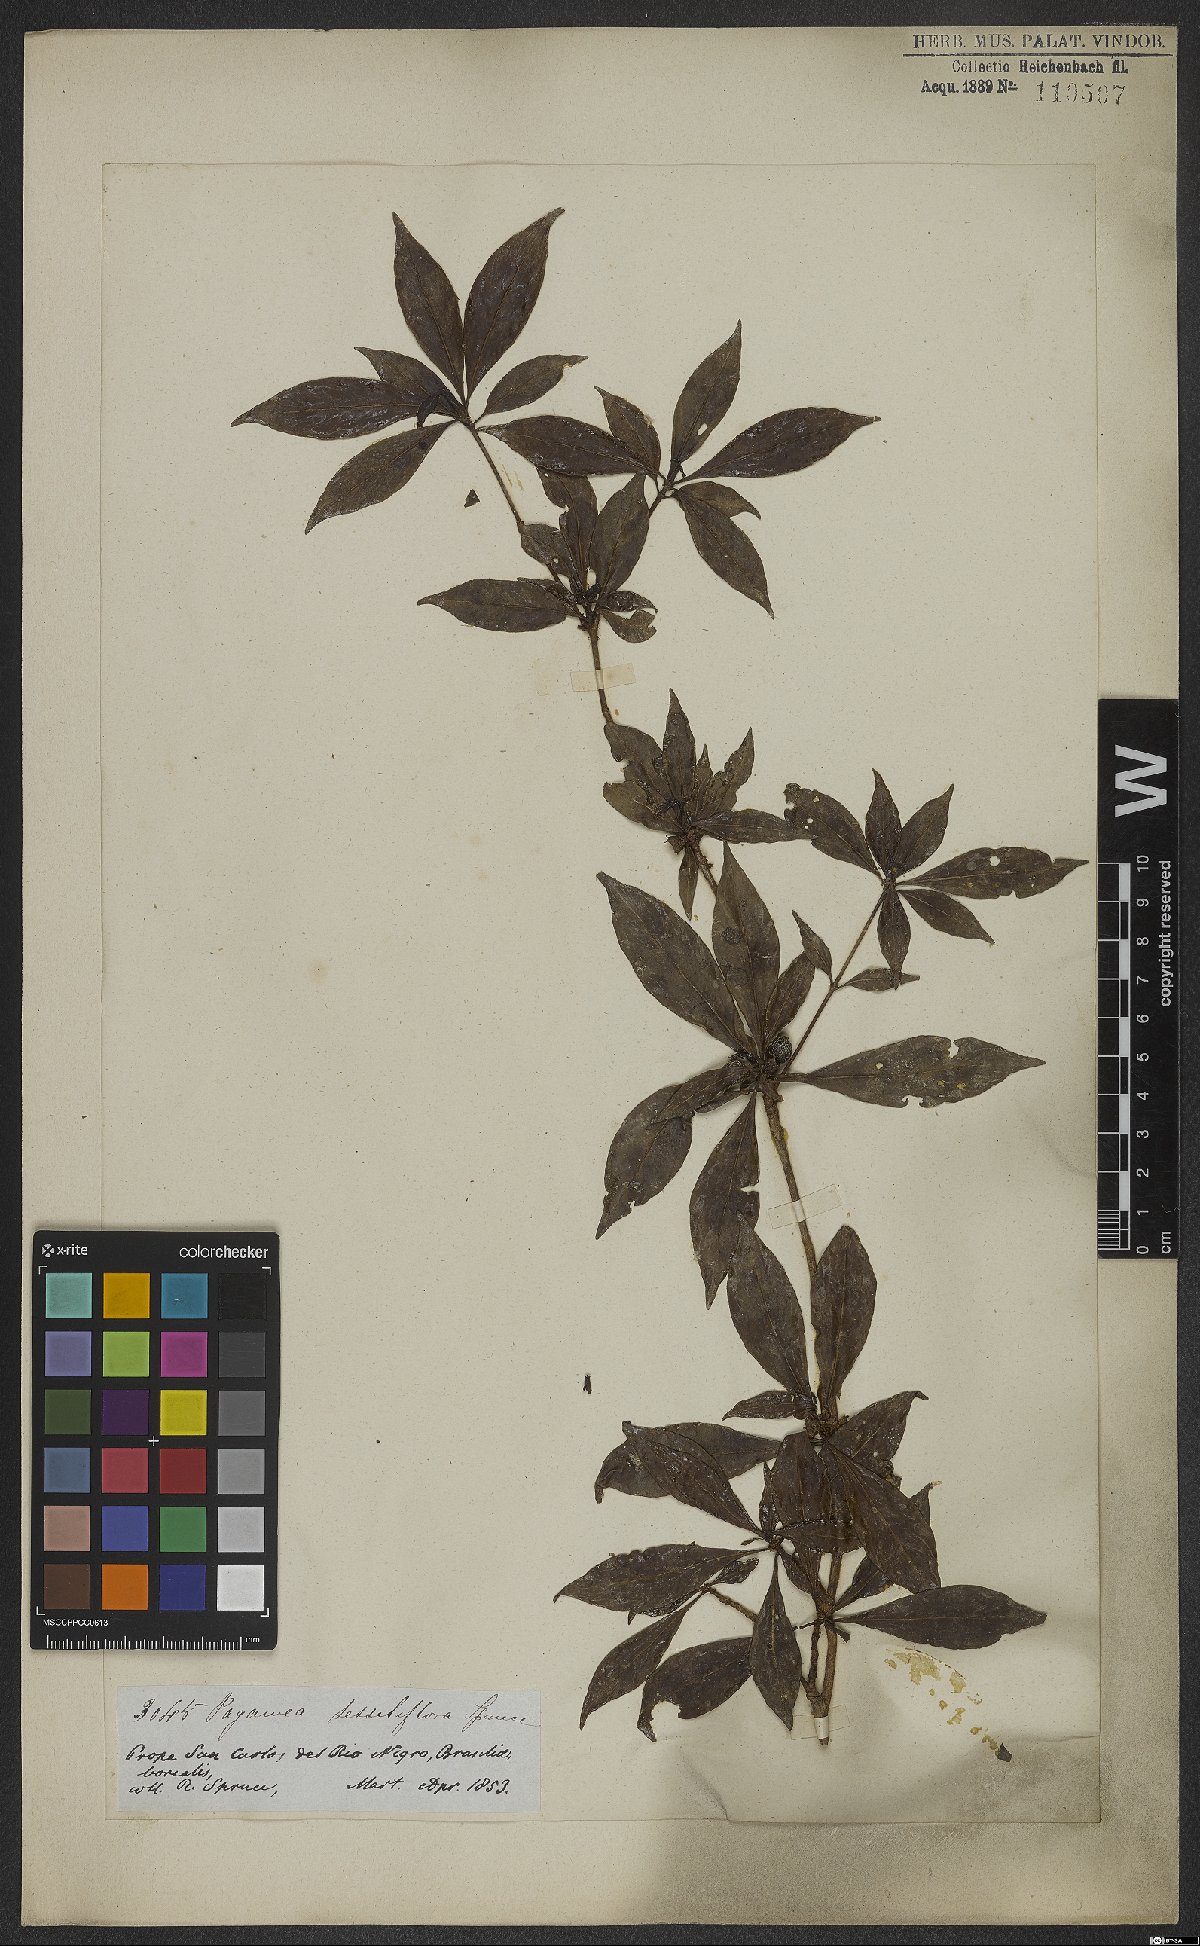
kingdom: Plantae
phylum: Tracheophyta
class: Magnoliopsida
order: Gentianales
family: Rubiaceae
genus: Pagamea
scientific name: Pagamea sessiliflora
